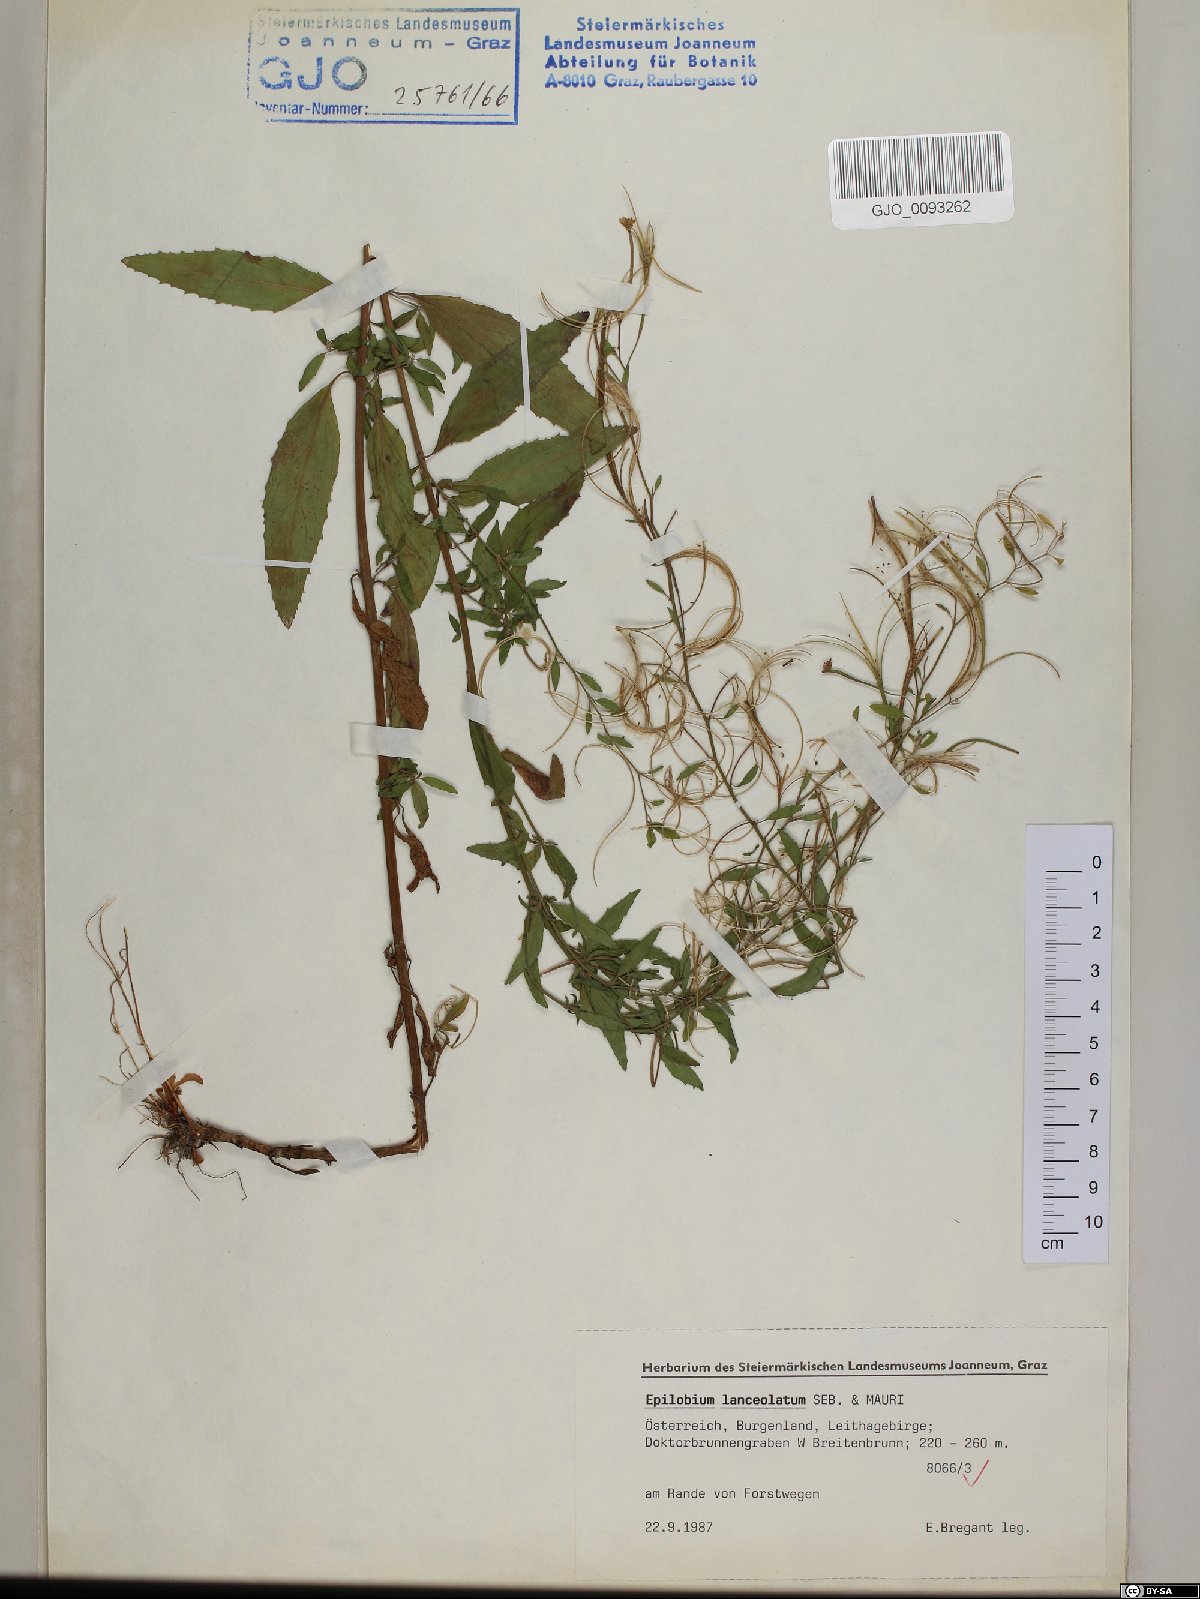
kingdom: Plantae
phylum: Tracheophyta
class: Magnoliopsida
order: Myrtales
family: Onagraceae
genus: Epilobium
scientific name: Epilobium lanceolatum
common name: Spear-leaved willowherb
